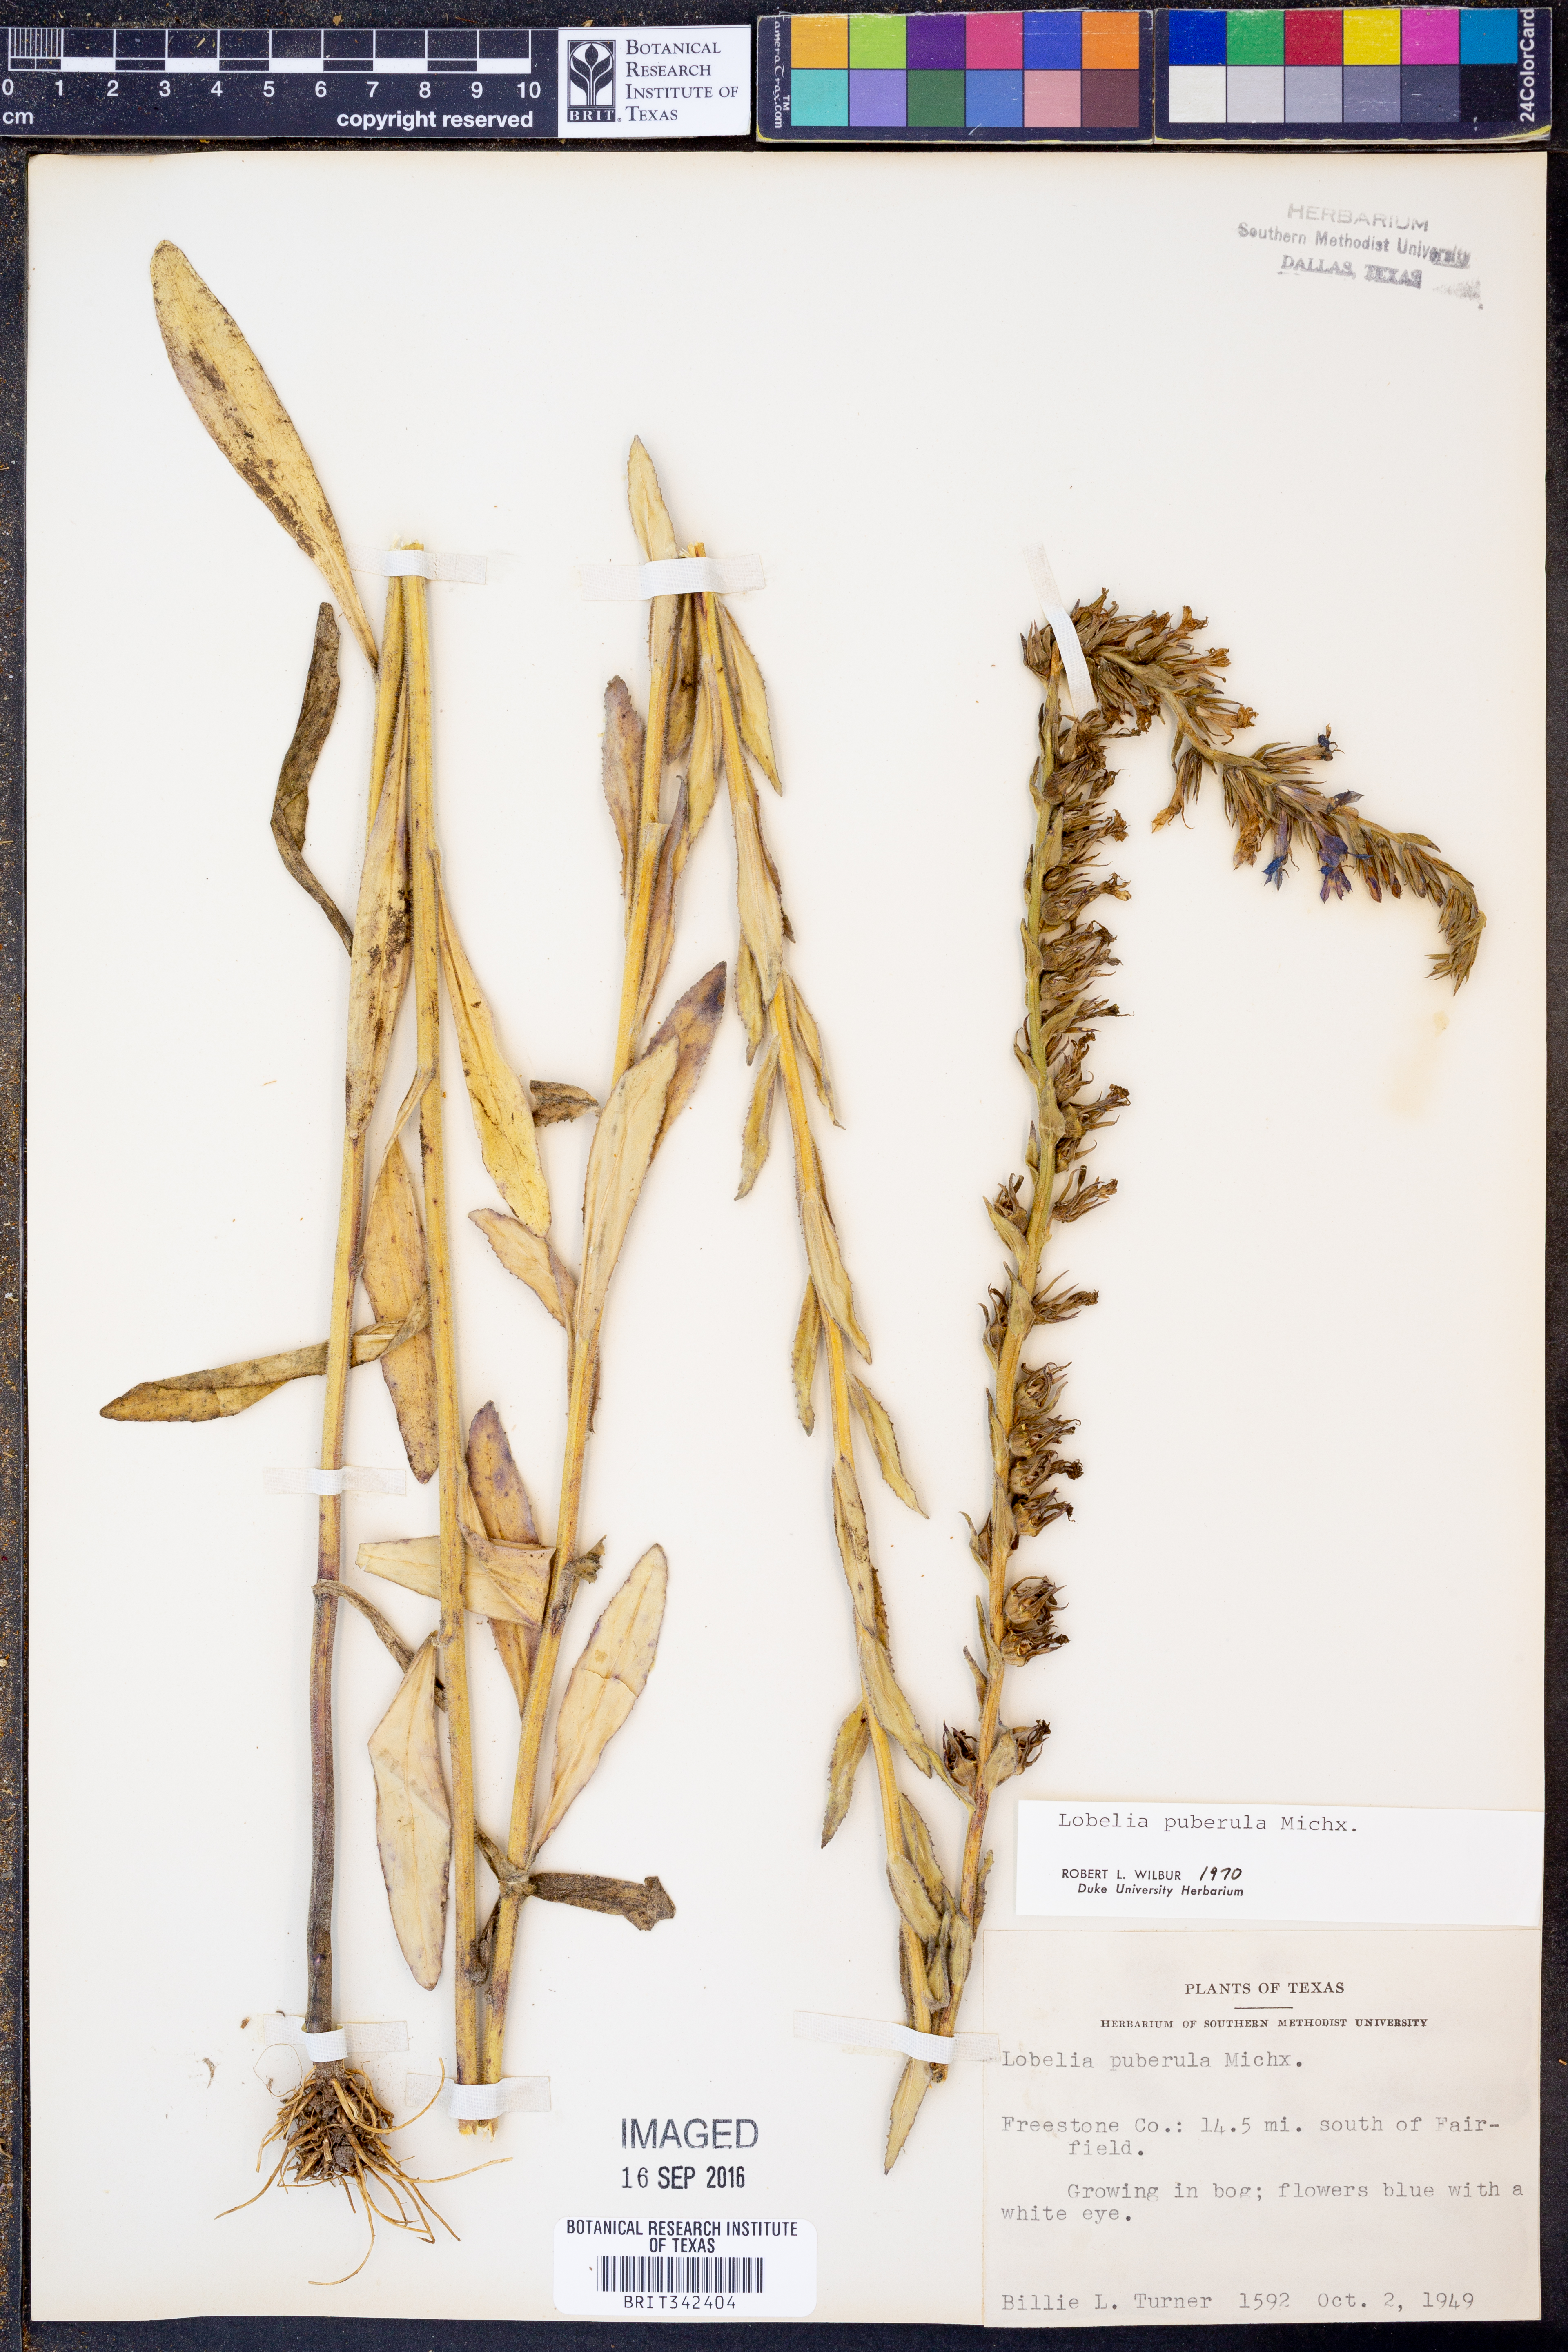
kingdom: Plantae
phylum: Tracheophyta
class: Magnoliopsida
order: Asterales
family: Campanulaceae
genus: Lobelia
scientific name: Lobelia puberula
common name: Purple dewdrop
